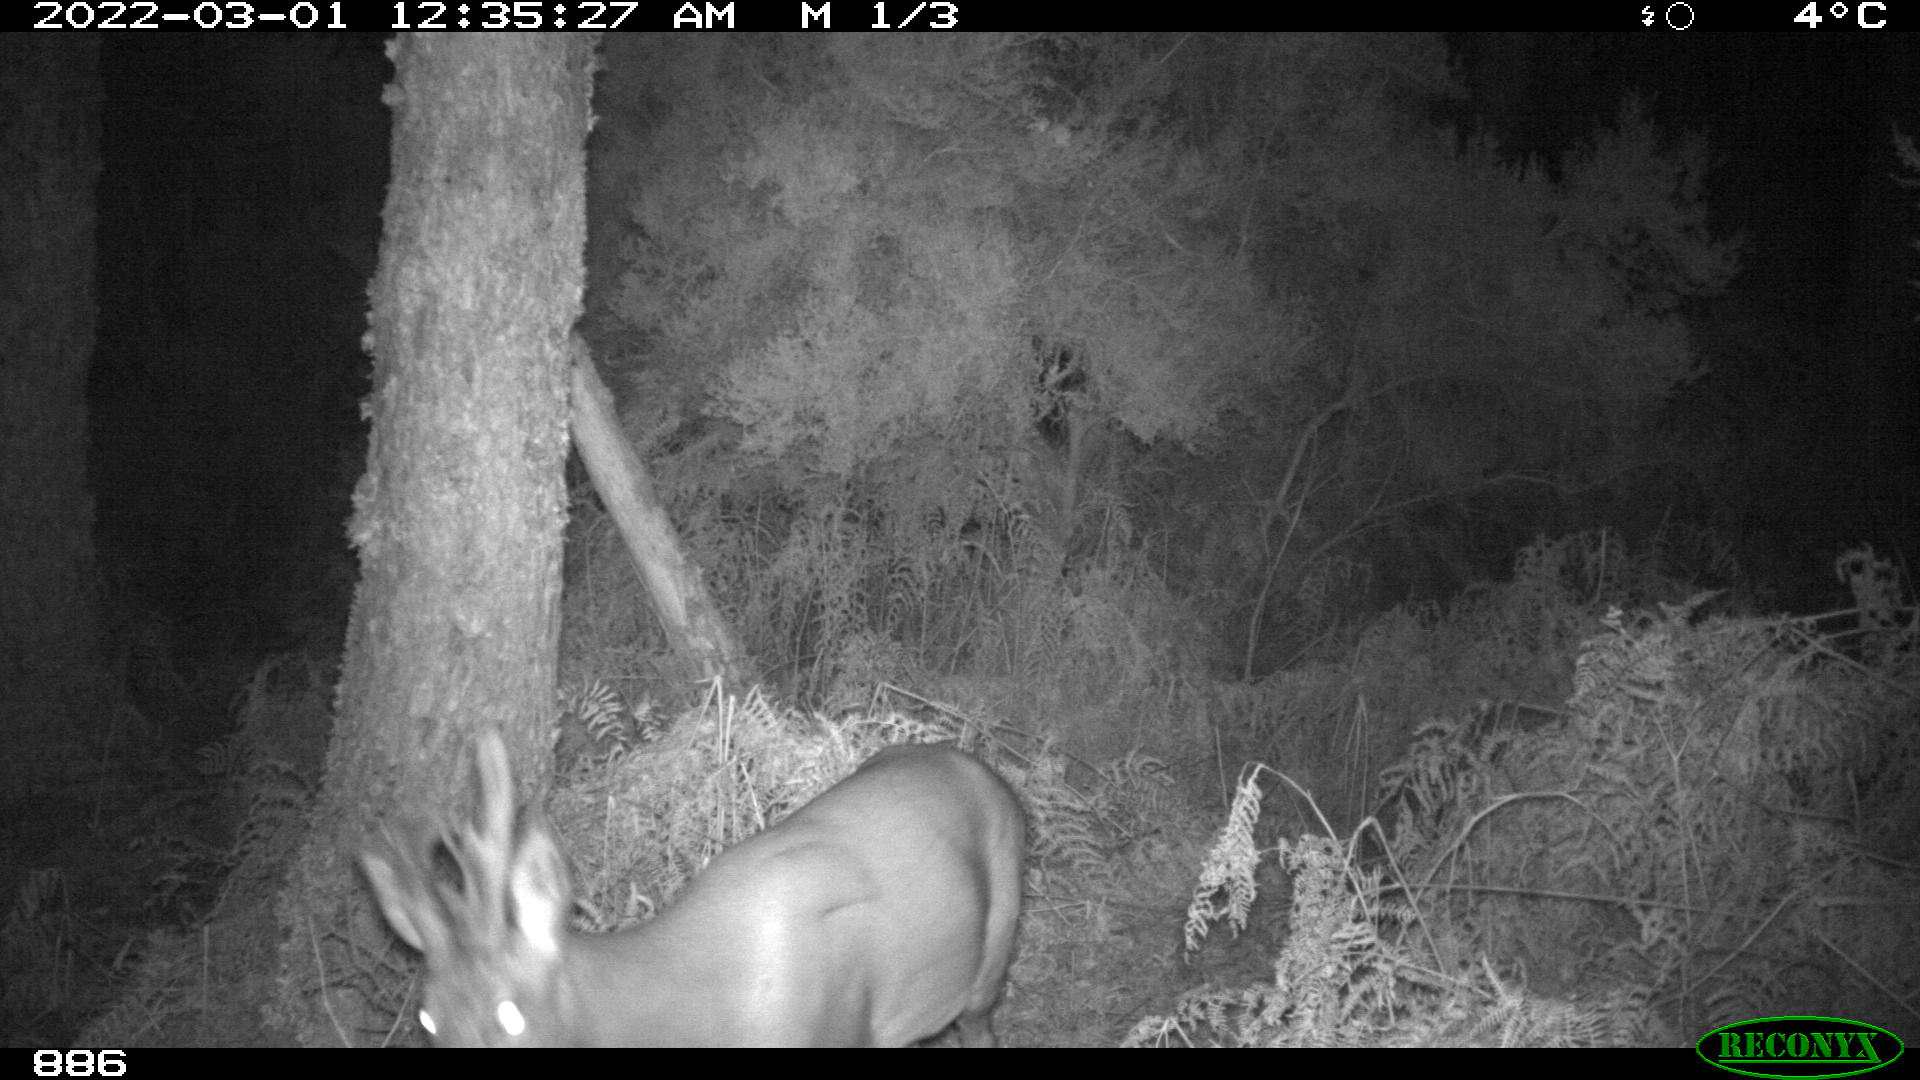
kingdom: Animalia
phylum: Chordata
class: Mammalia
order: Artiodactyla
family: Cervidae
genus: Capreolus
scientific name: Capreolus capreolus
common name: Western roe deer
